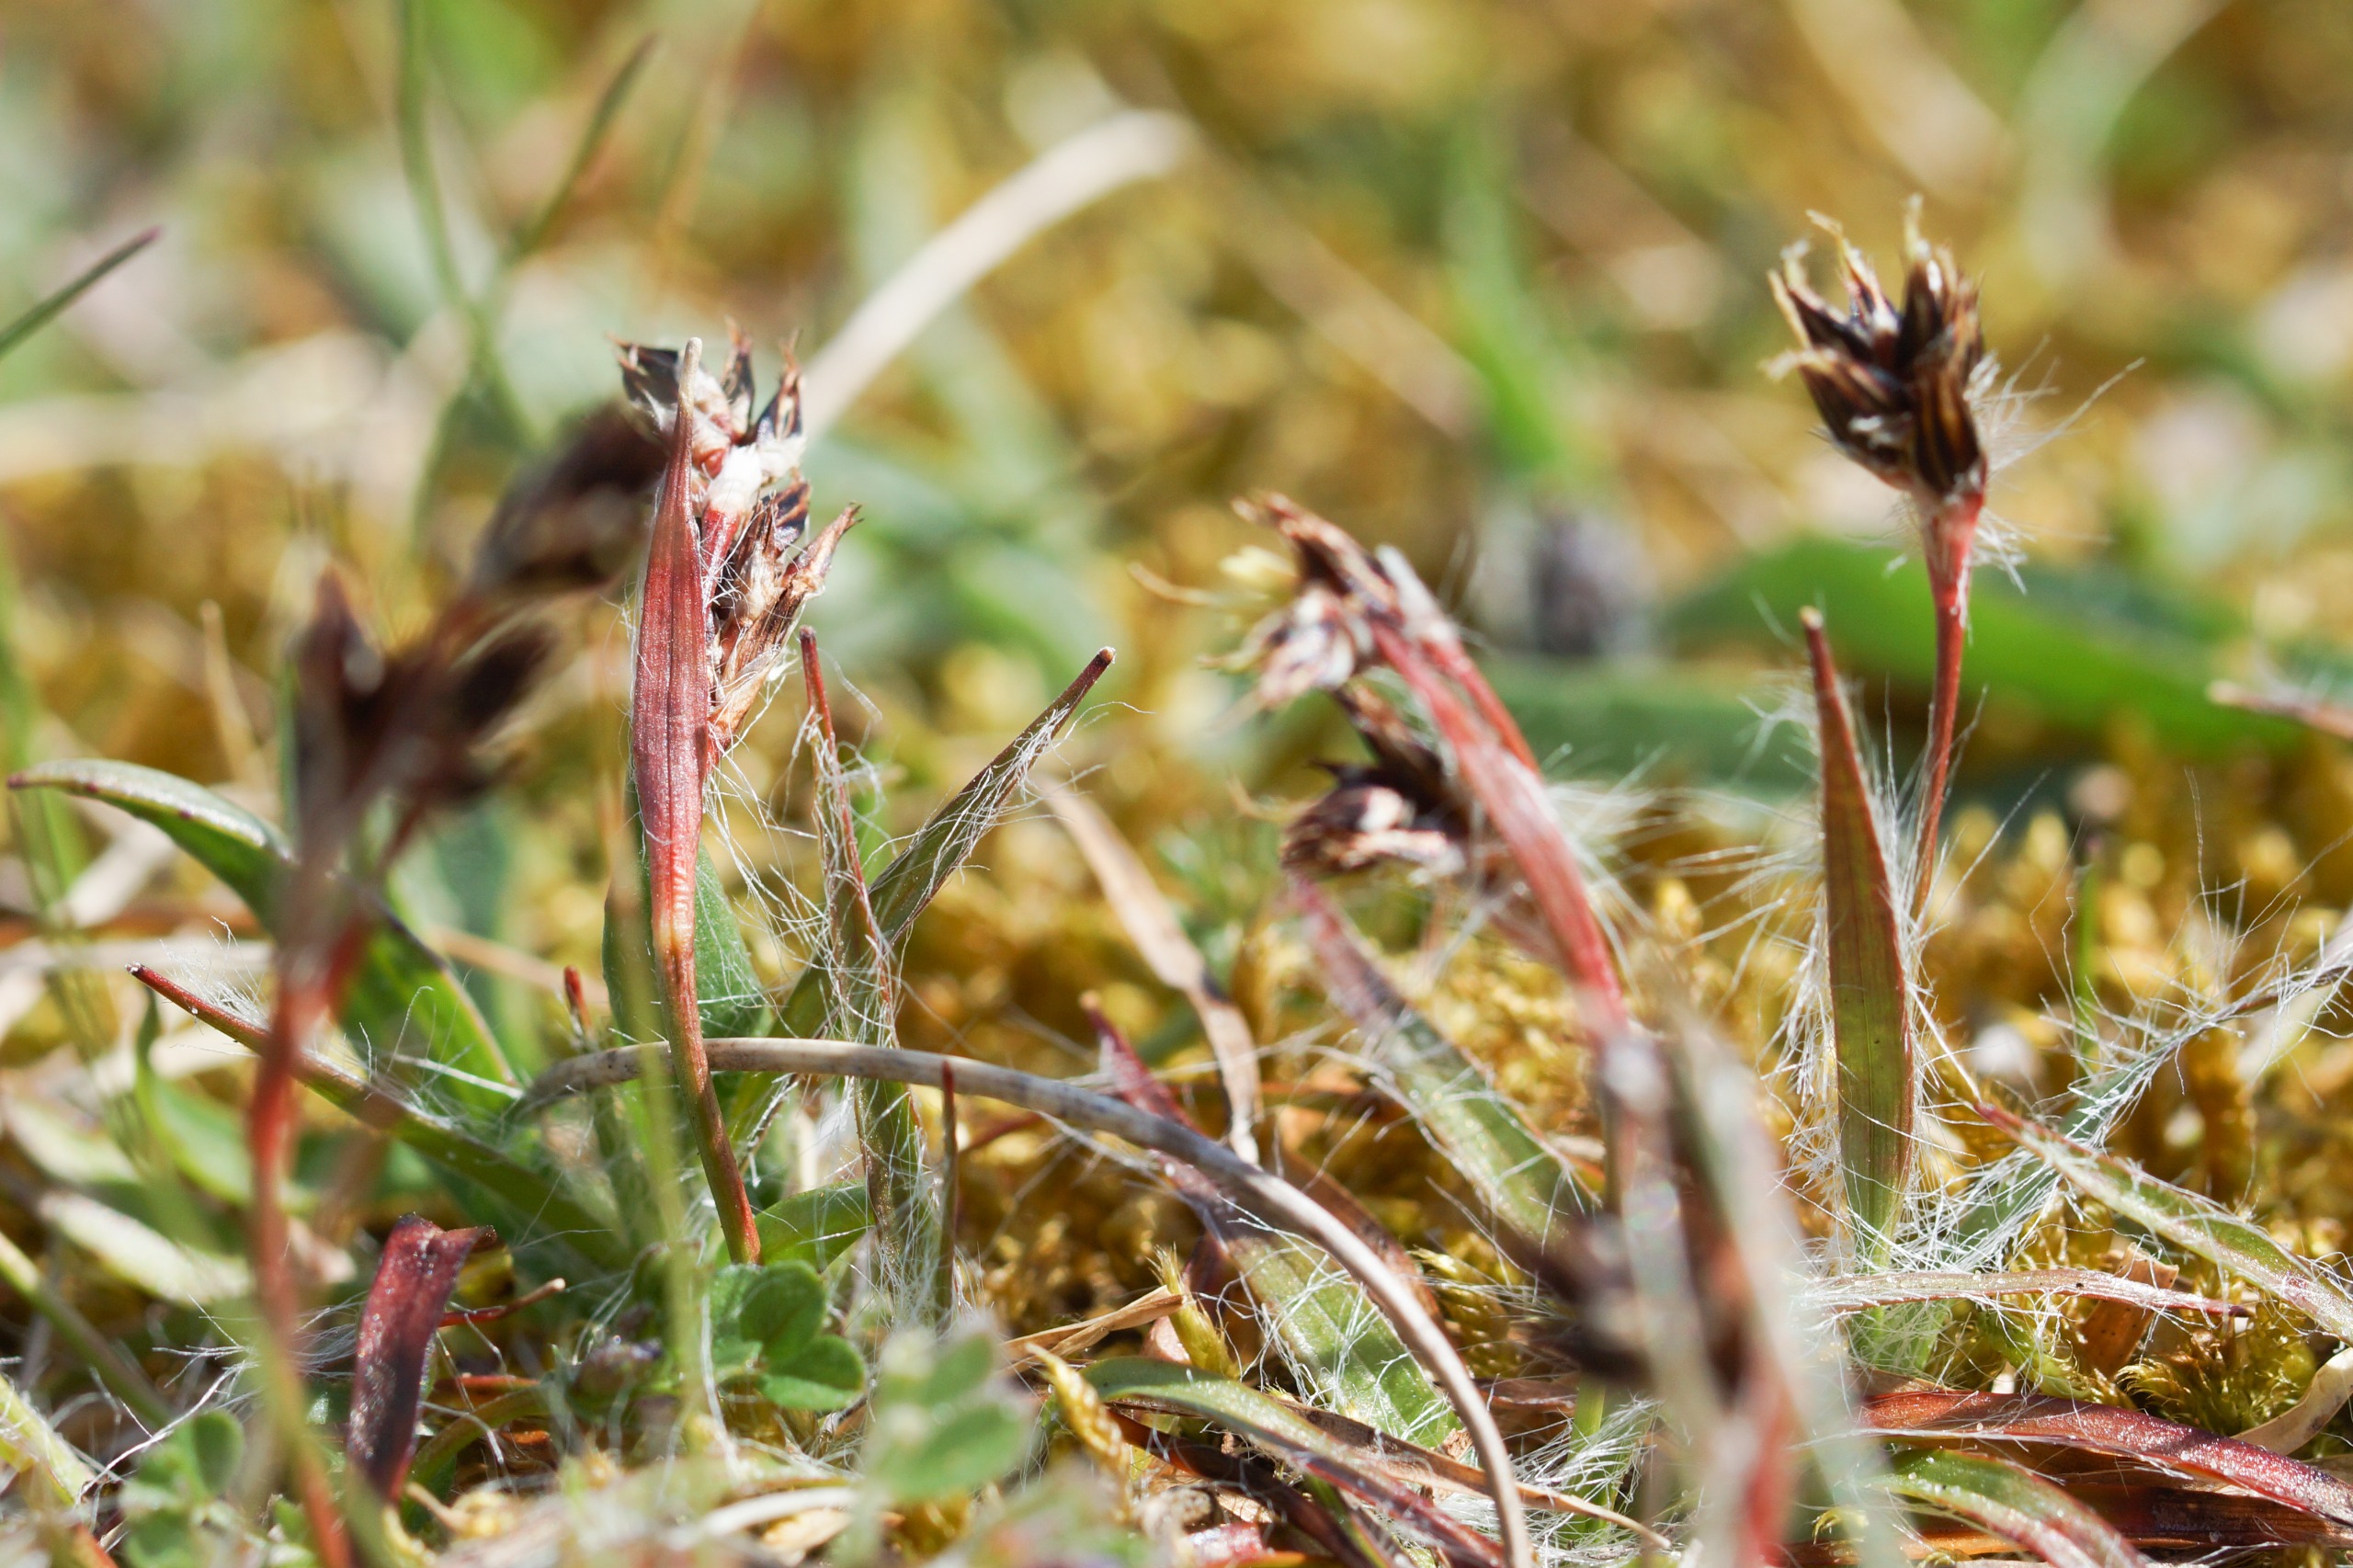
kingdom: Plantae
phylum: Tracheophyta
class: Liliopsida
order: Poales
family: Juncaceae
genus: Luzula
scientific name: Luzula campestris
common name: Mark-frytle
